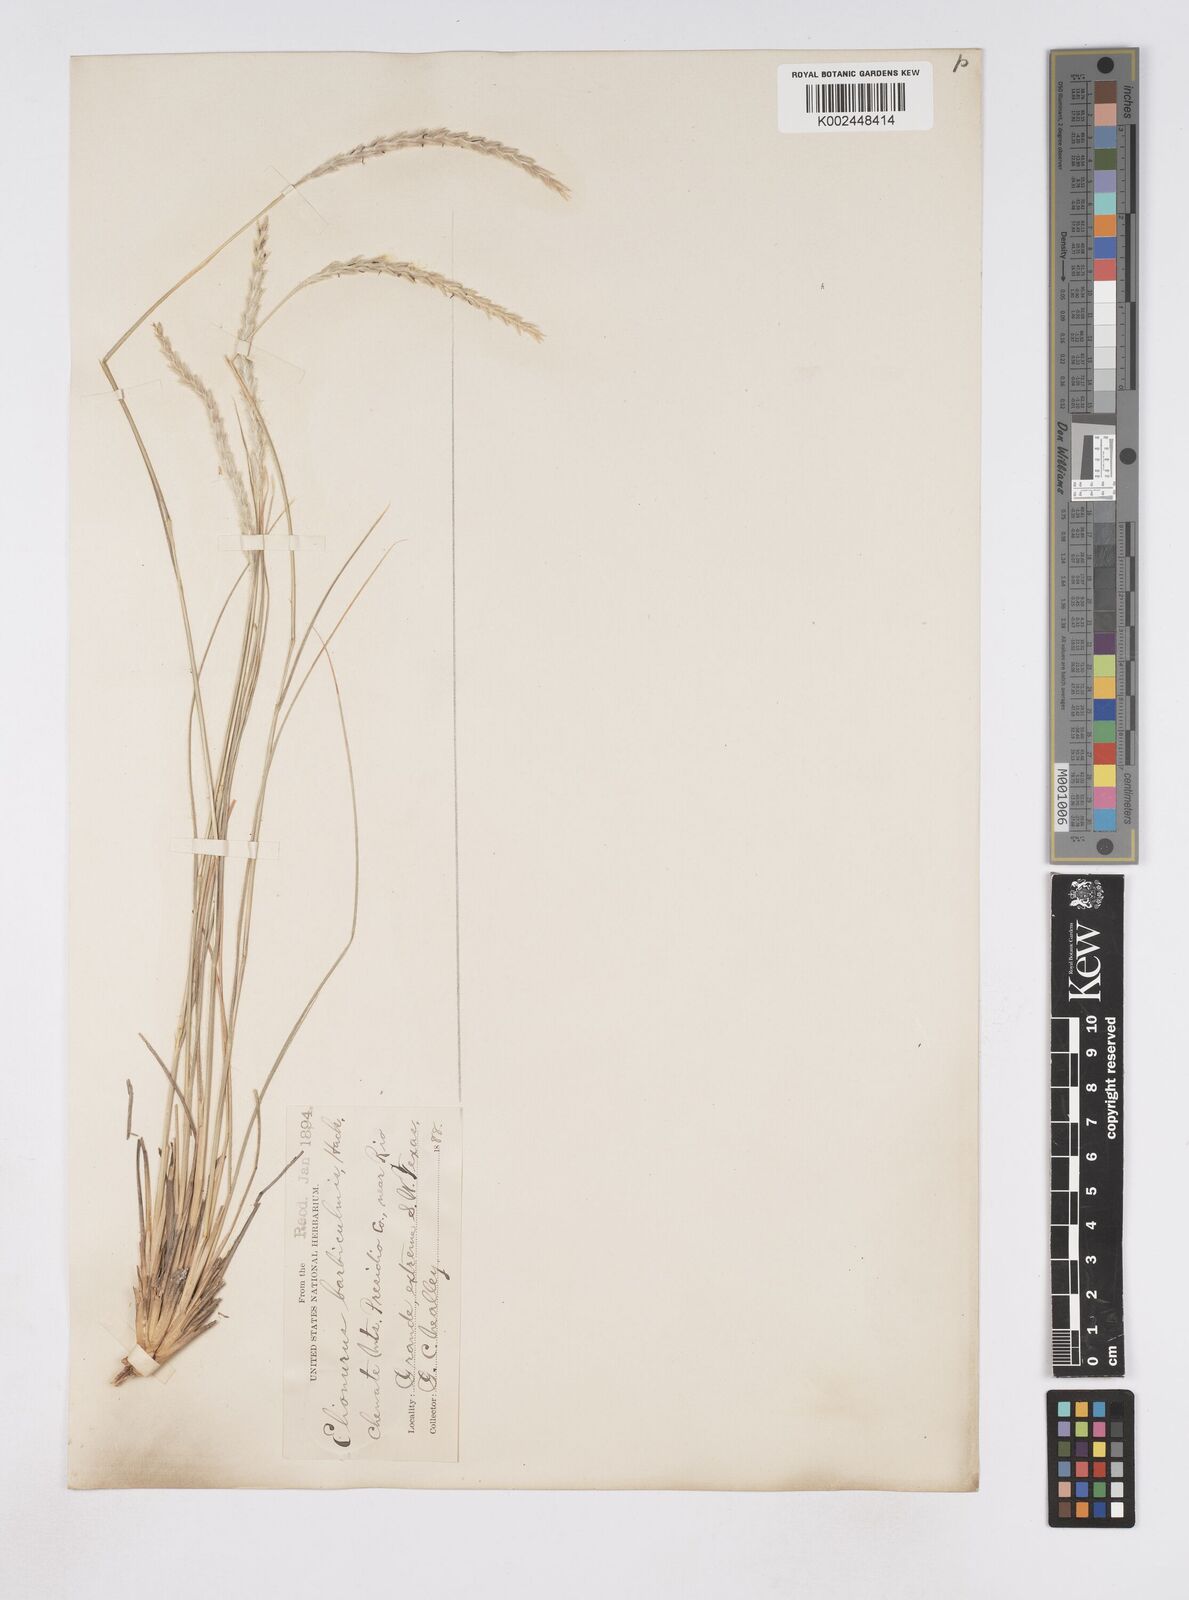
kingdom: Plantae
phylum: Tracheophyta
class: Liliopsida
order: Poales
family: Poaceae
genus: Elionurus
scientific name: Elionurus barbiculmis
